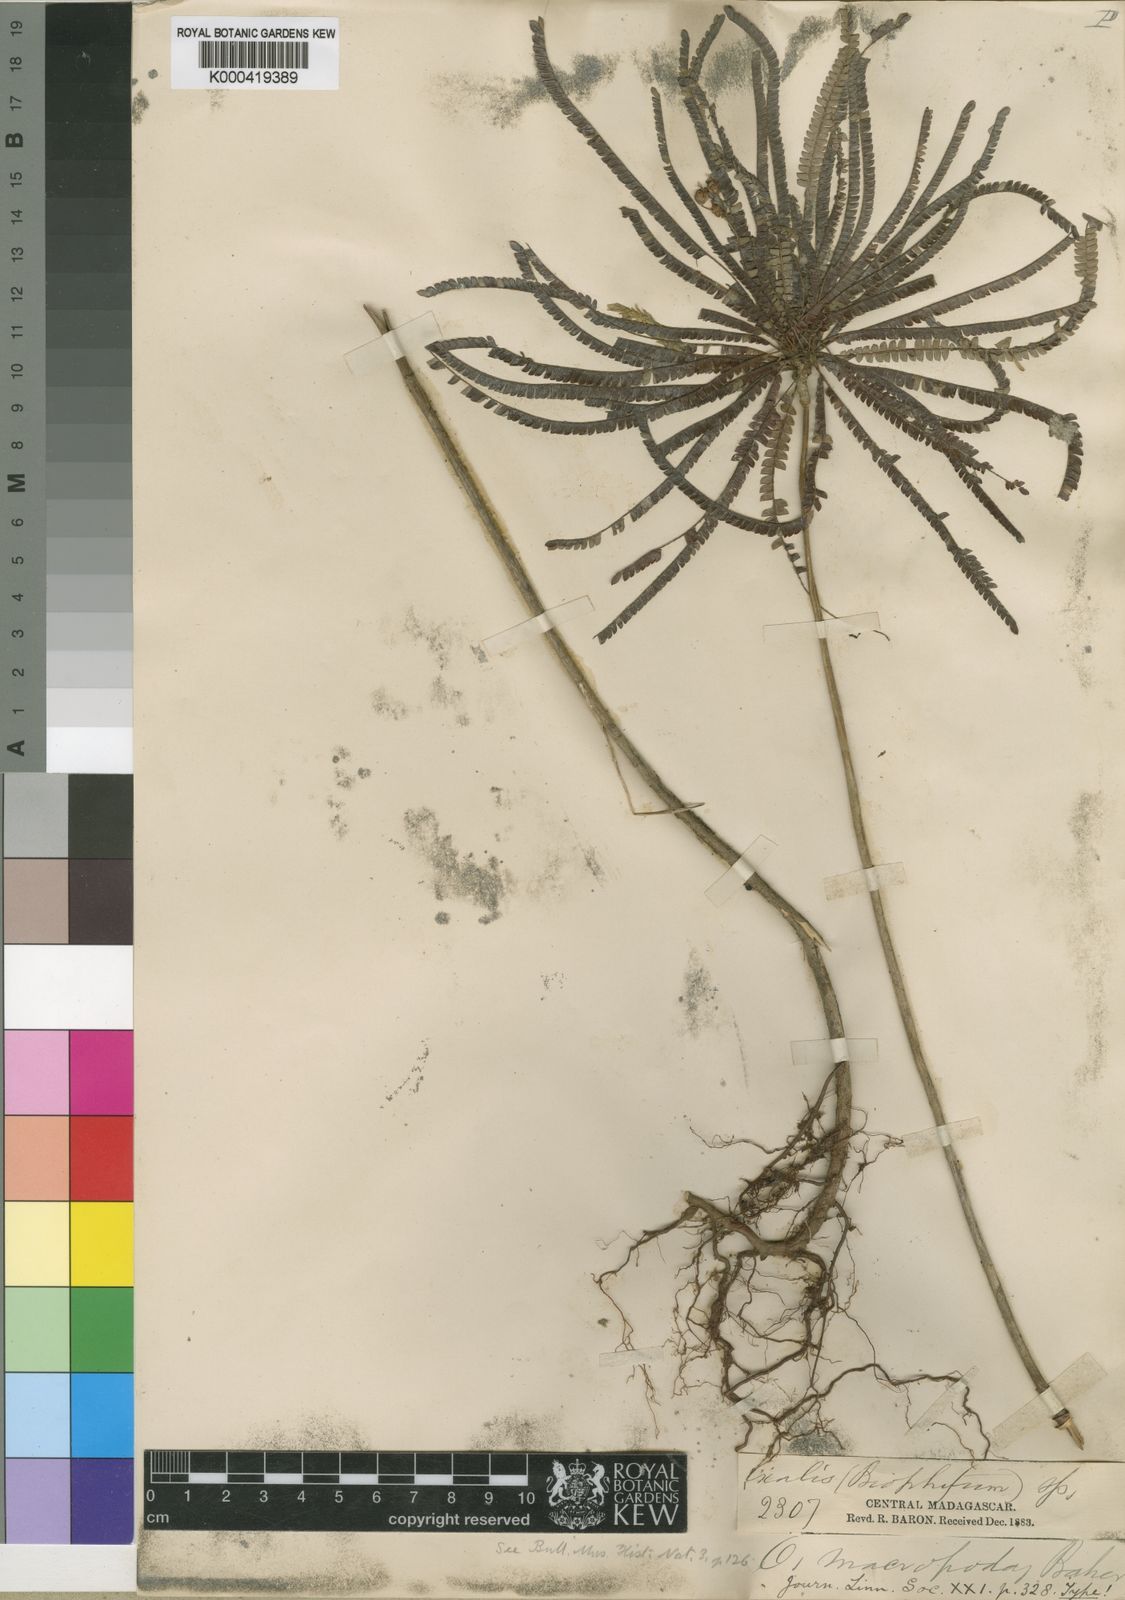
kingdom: Plantae
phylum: Tracheophyta
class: Magnoliopsida
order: Oxalidales
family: Oxalidaceae
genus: Biophytum
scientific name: Biophytum
